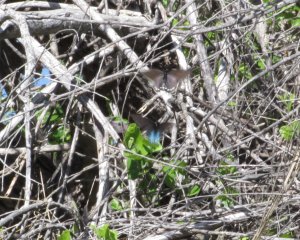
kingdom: Animalia
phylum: Arthropoda
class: Insecta
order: Lepidoptera
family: Papilionidae
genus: Battus
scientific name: Battus philenor
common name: Pipevine Swallowtail
